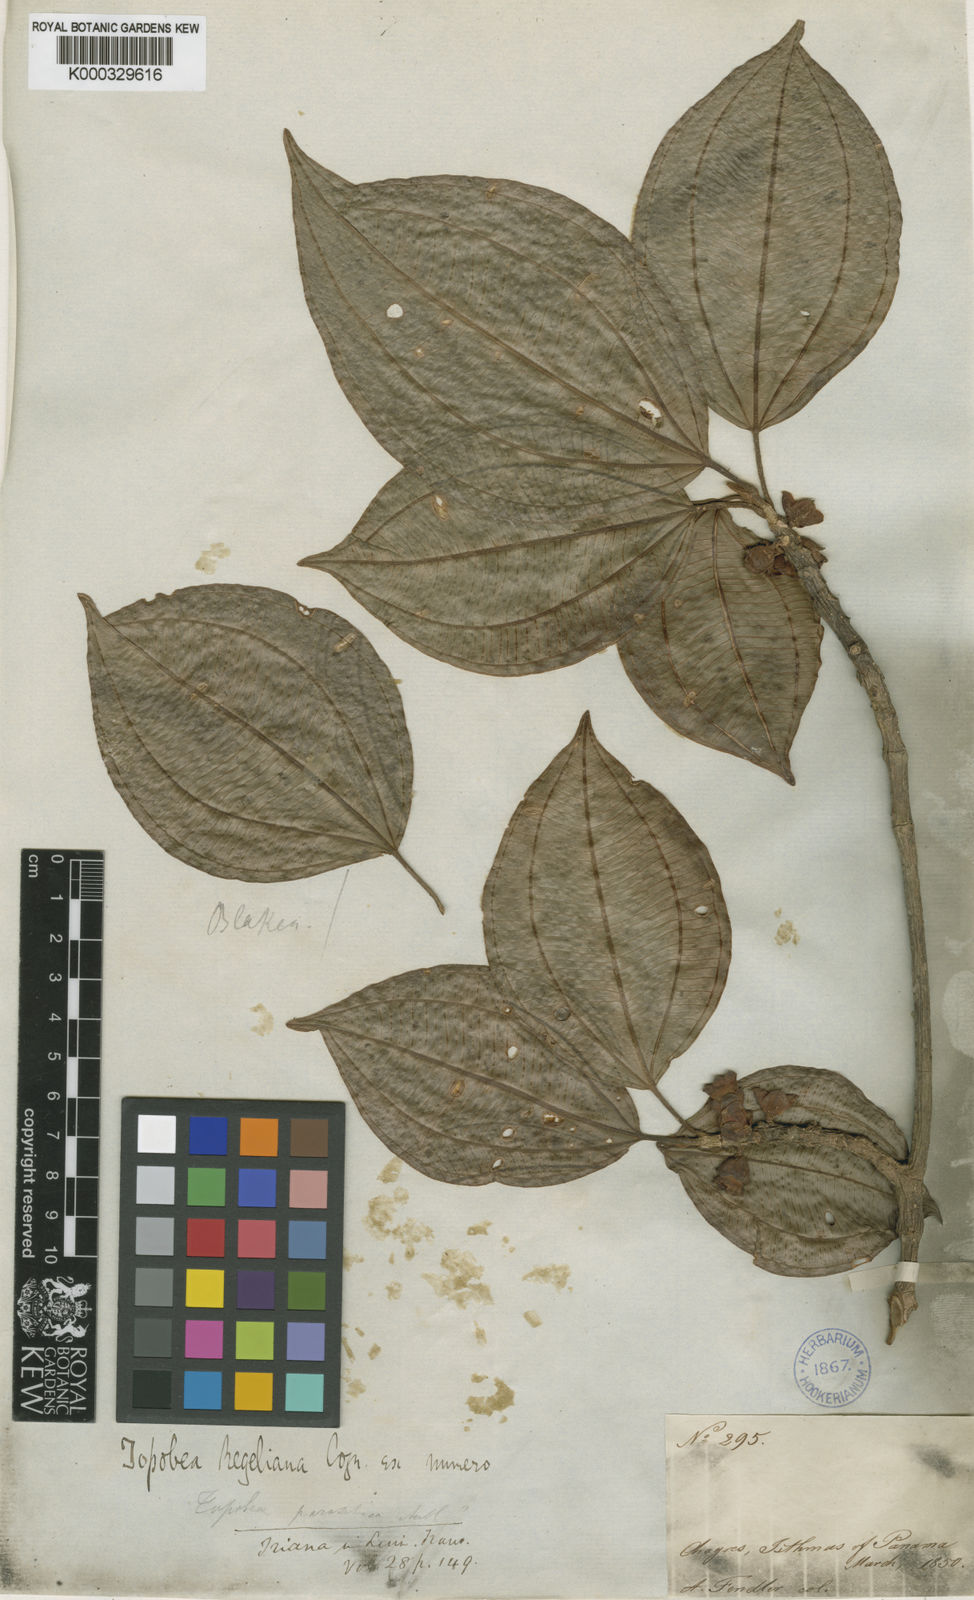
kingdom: Plantae
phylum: Tracheophyta
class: Magnoliopsida
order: Myrtales
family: Melastomataceae
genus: Blakea
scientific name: Blakea parasitica
